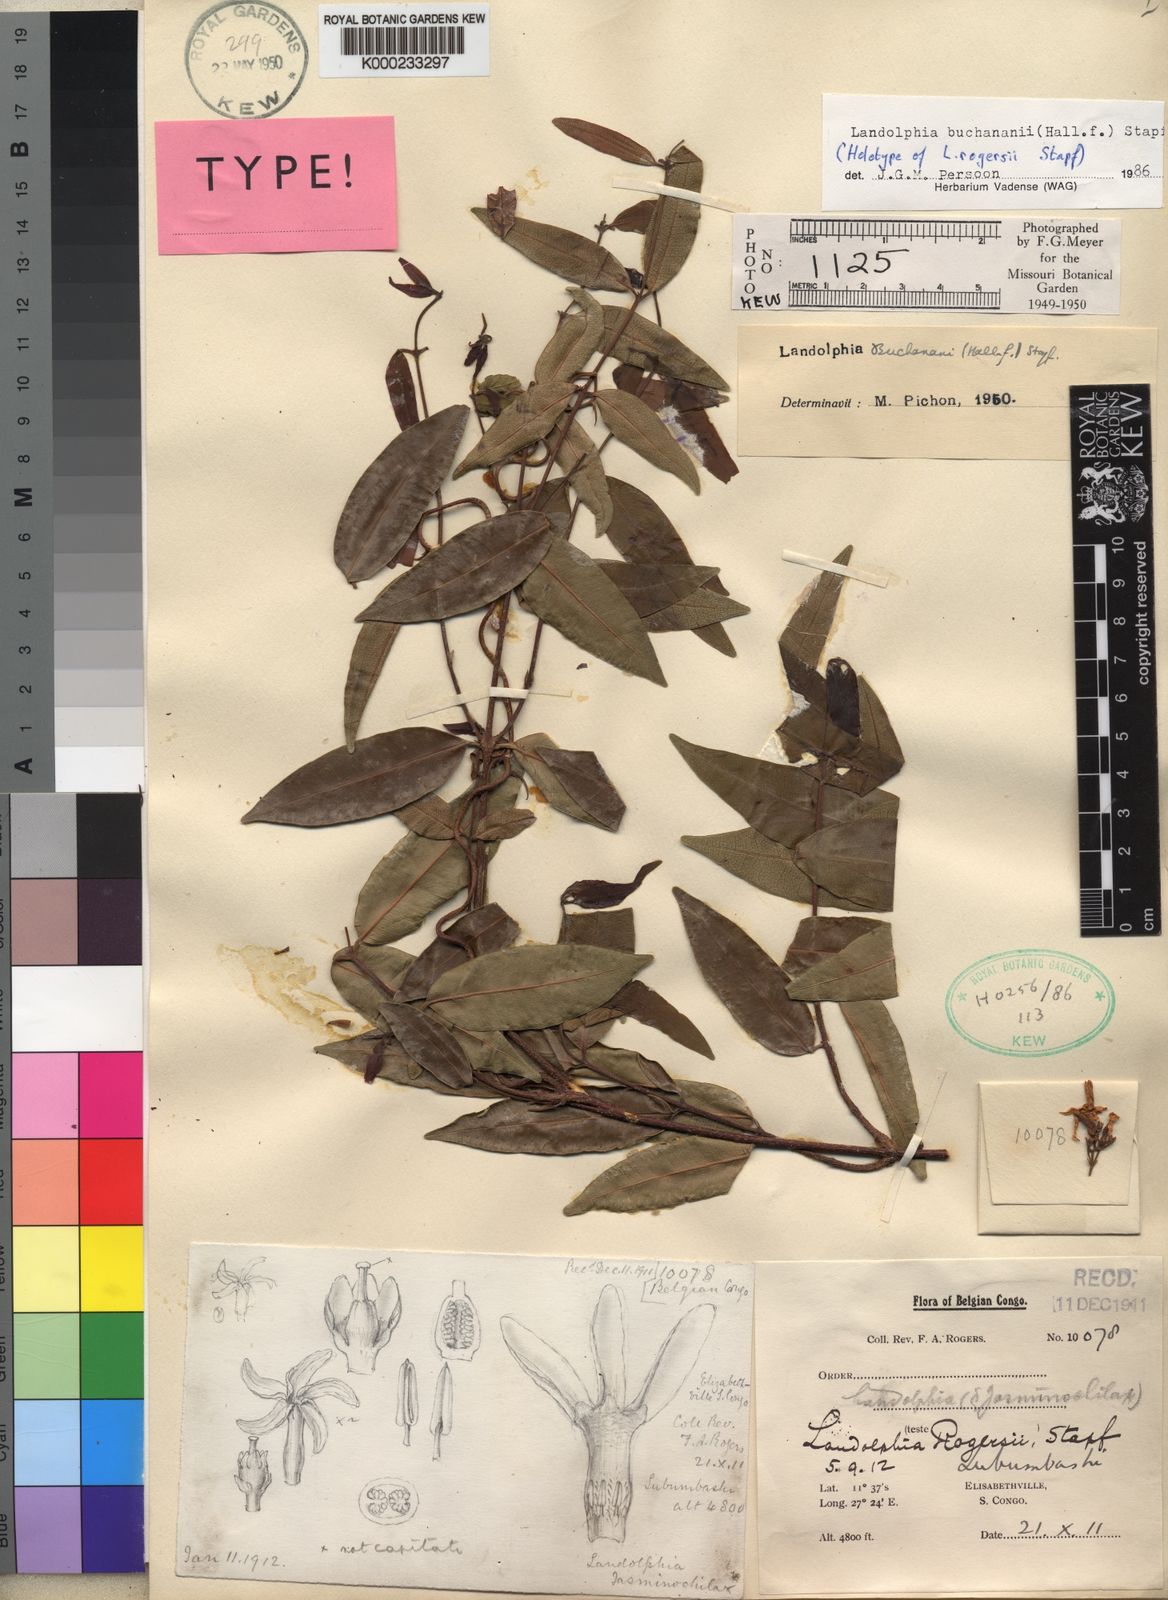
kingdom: Plantae
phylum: Tracheophyta
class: Magnoliopsida
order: Gentianales
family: Apocynaceae
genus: Landolphia
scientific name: Landolphia buchananii
